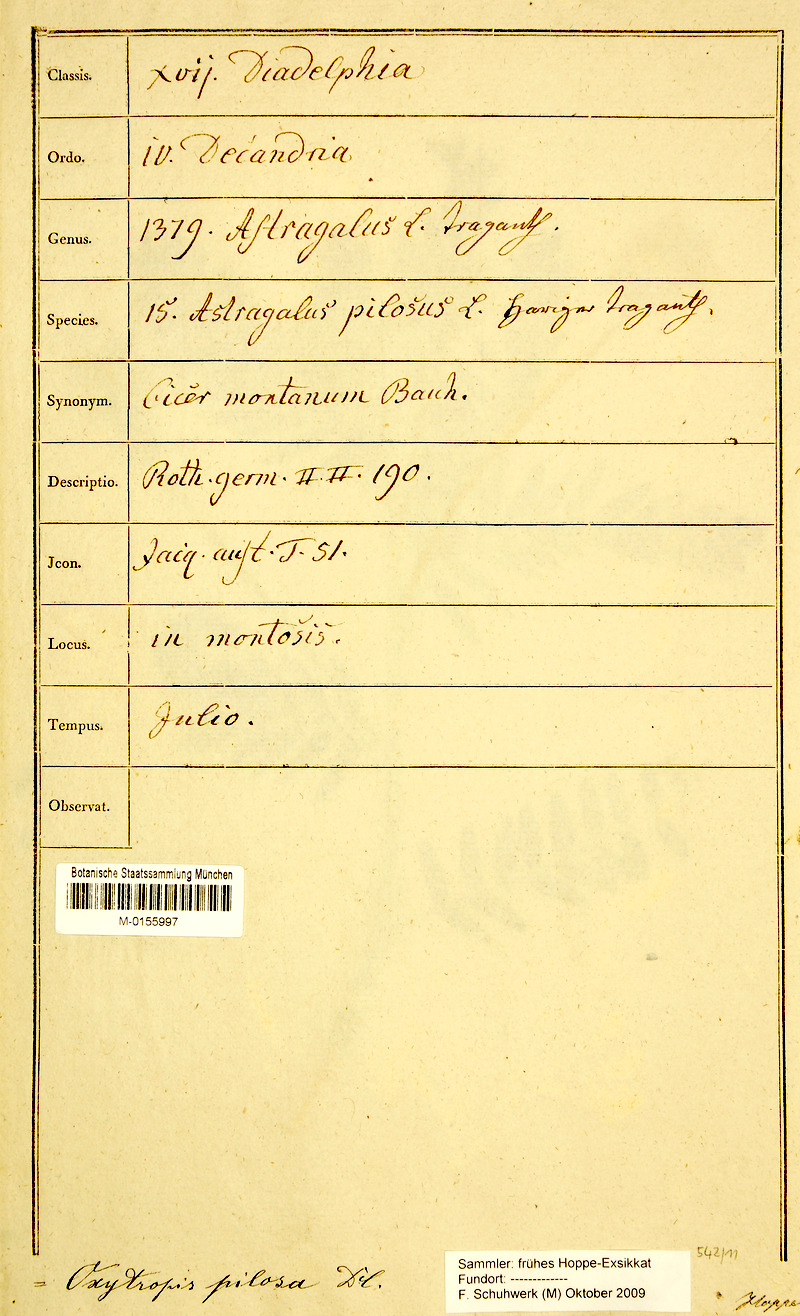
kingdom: Plantae
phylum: Tracheophyta
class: Magnoliopsida
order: Fabales
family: Fabaceae
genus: Oxytropis
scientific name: Oxytropis pilosa
